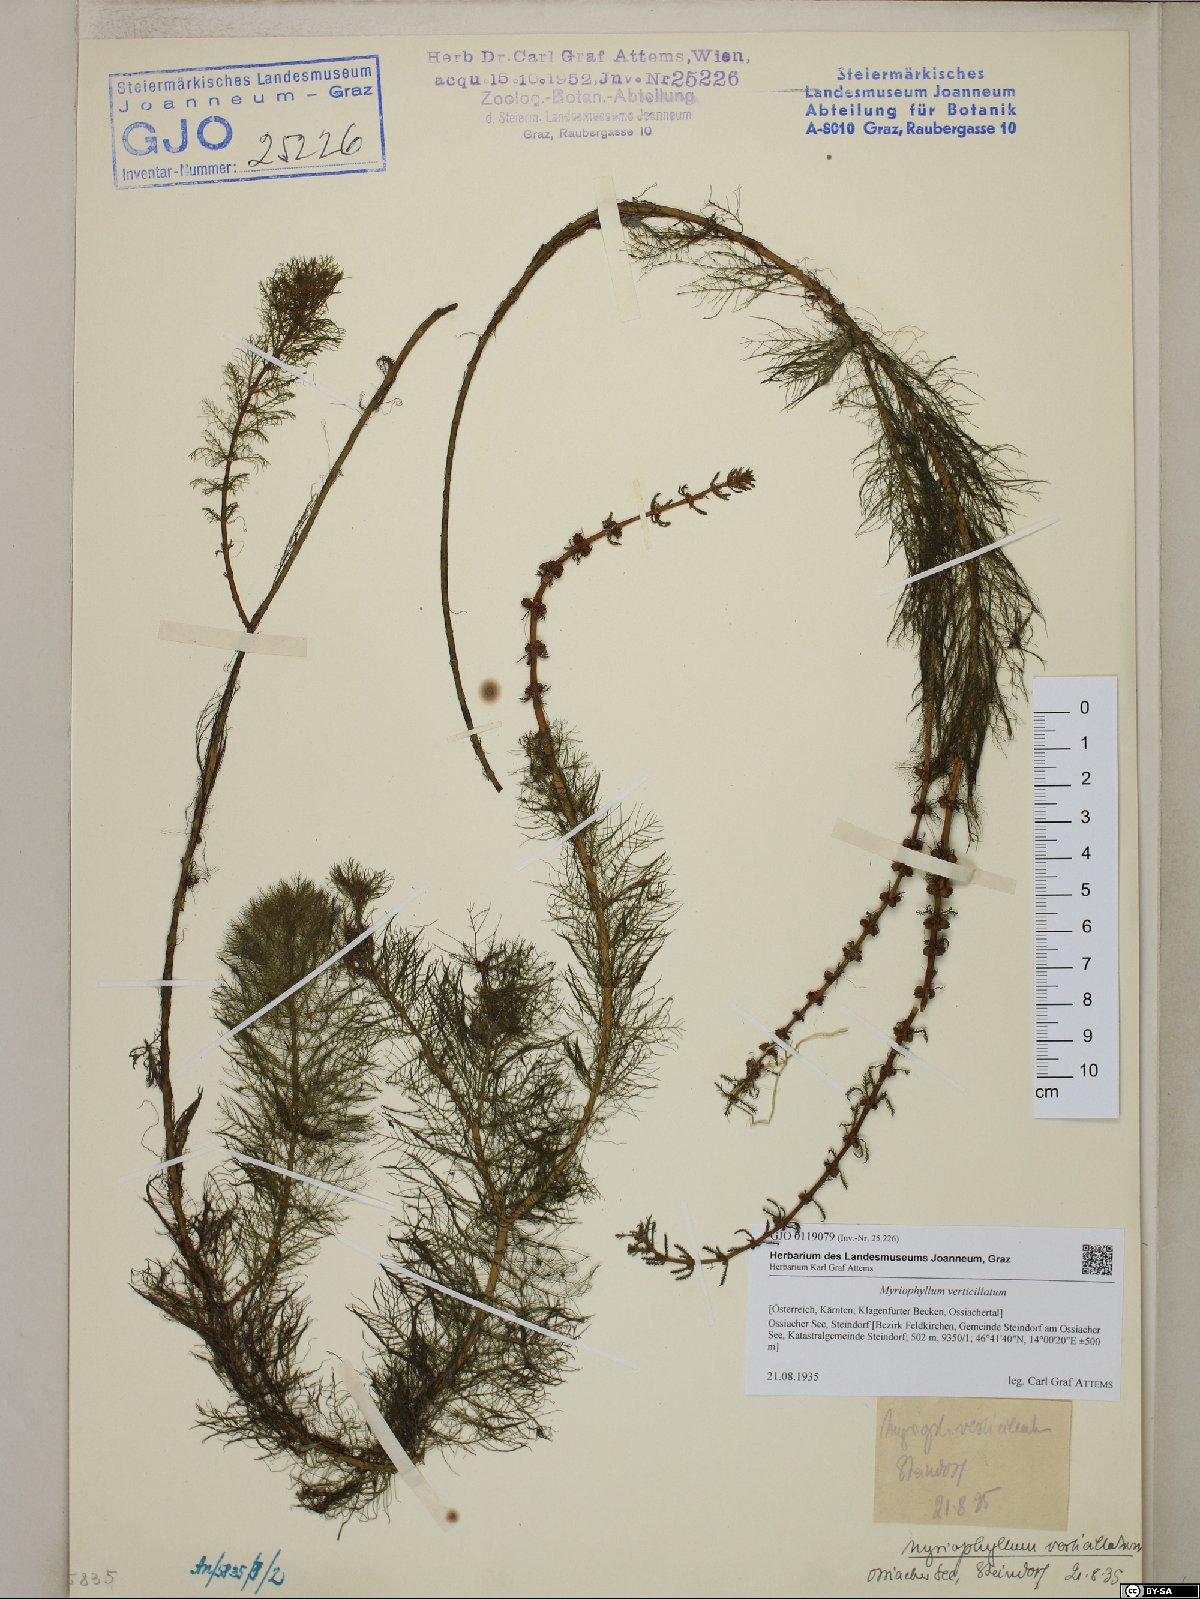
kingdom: Plantae
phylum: Tracheophyta
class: Magnoliopsida
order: Saxifragales
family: Haloragaceae
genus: Myriophyllum
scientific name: Myriophyllum verticillatum
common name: Whorled water-milfoil
